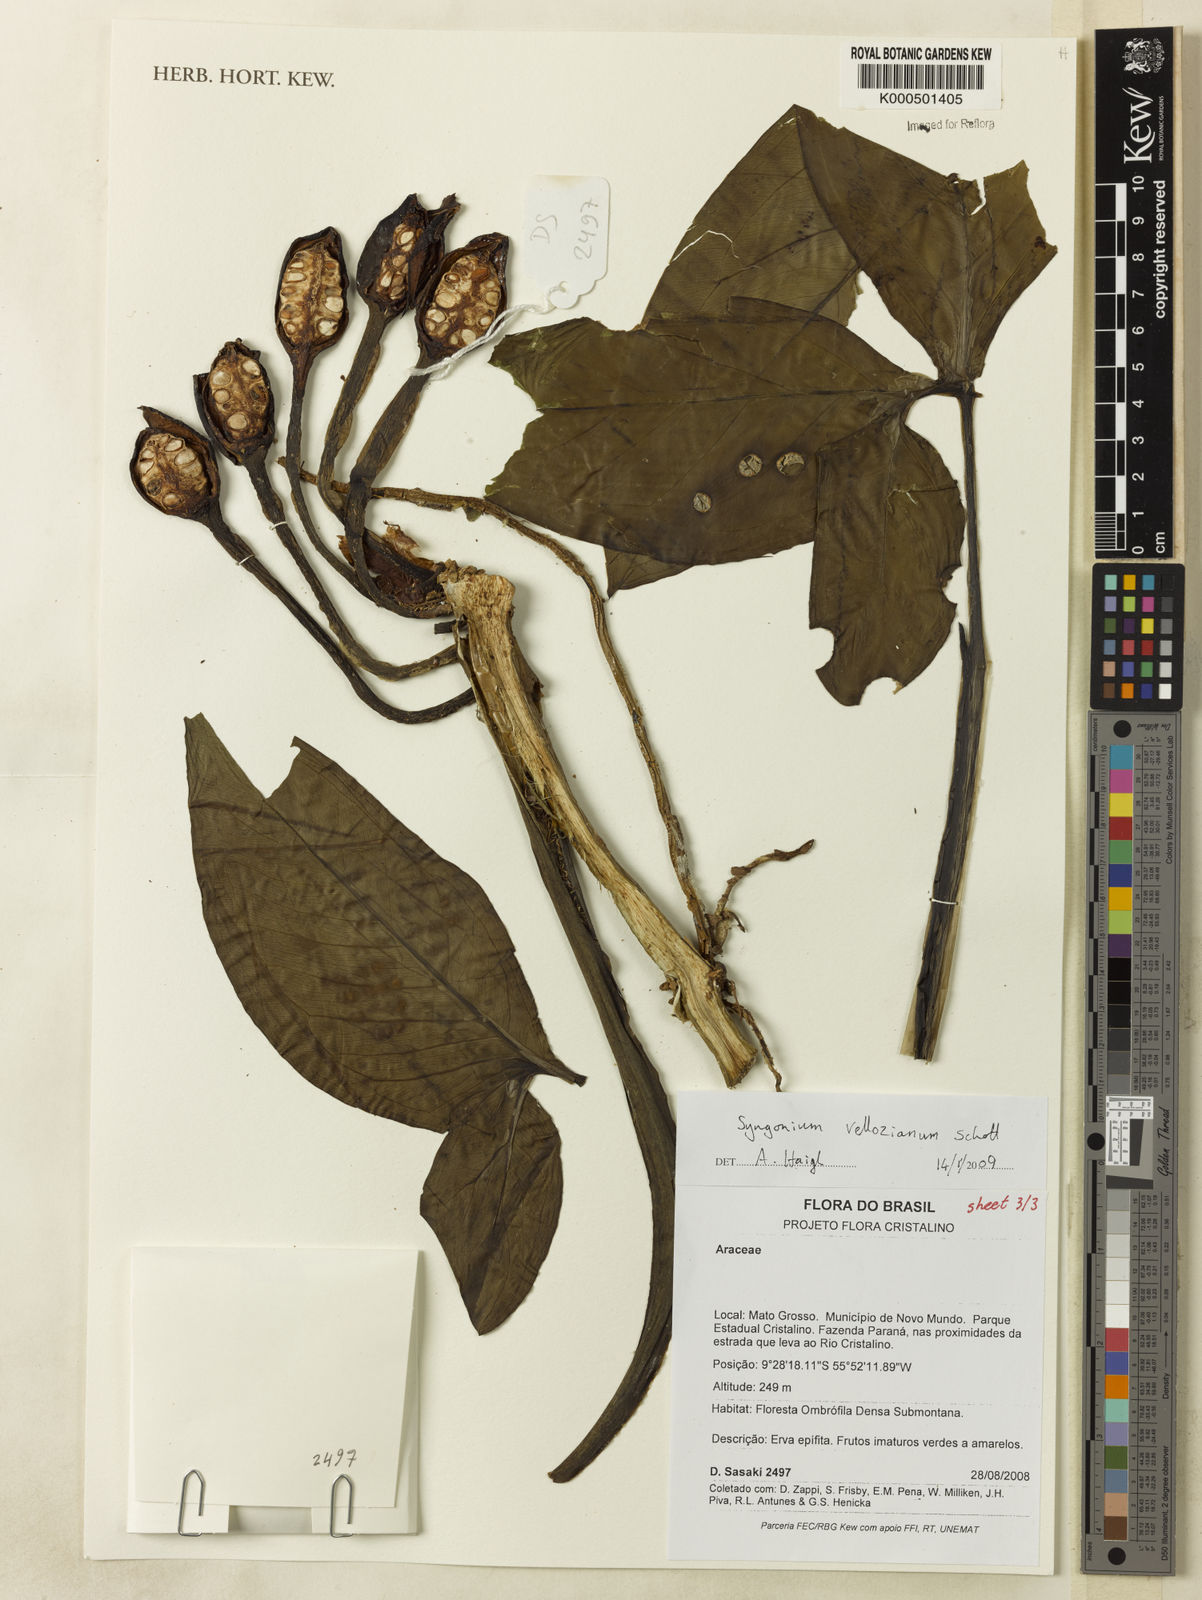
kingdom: Plantae
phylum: Tracheophyta
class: Liliopsida
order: Alismatales
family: Araceae
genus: Syngonium
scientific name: Syngonium podophyllum
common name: American evergreen
